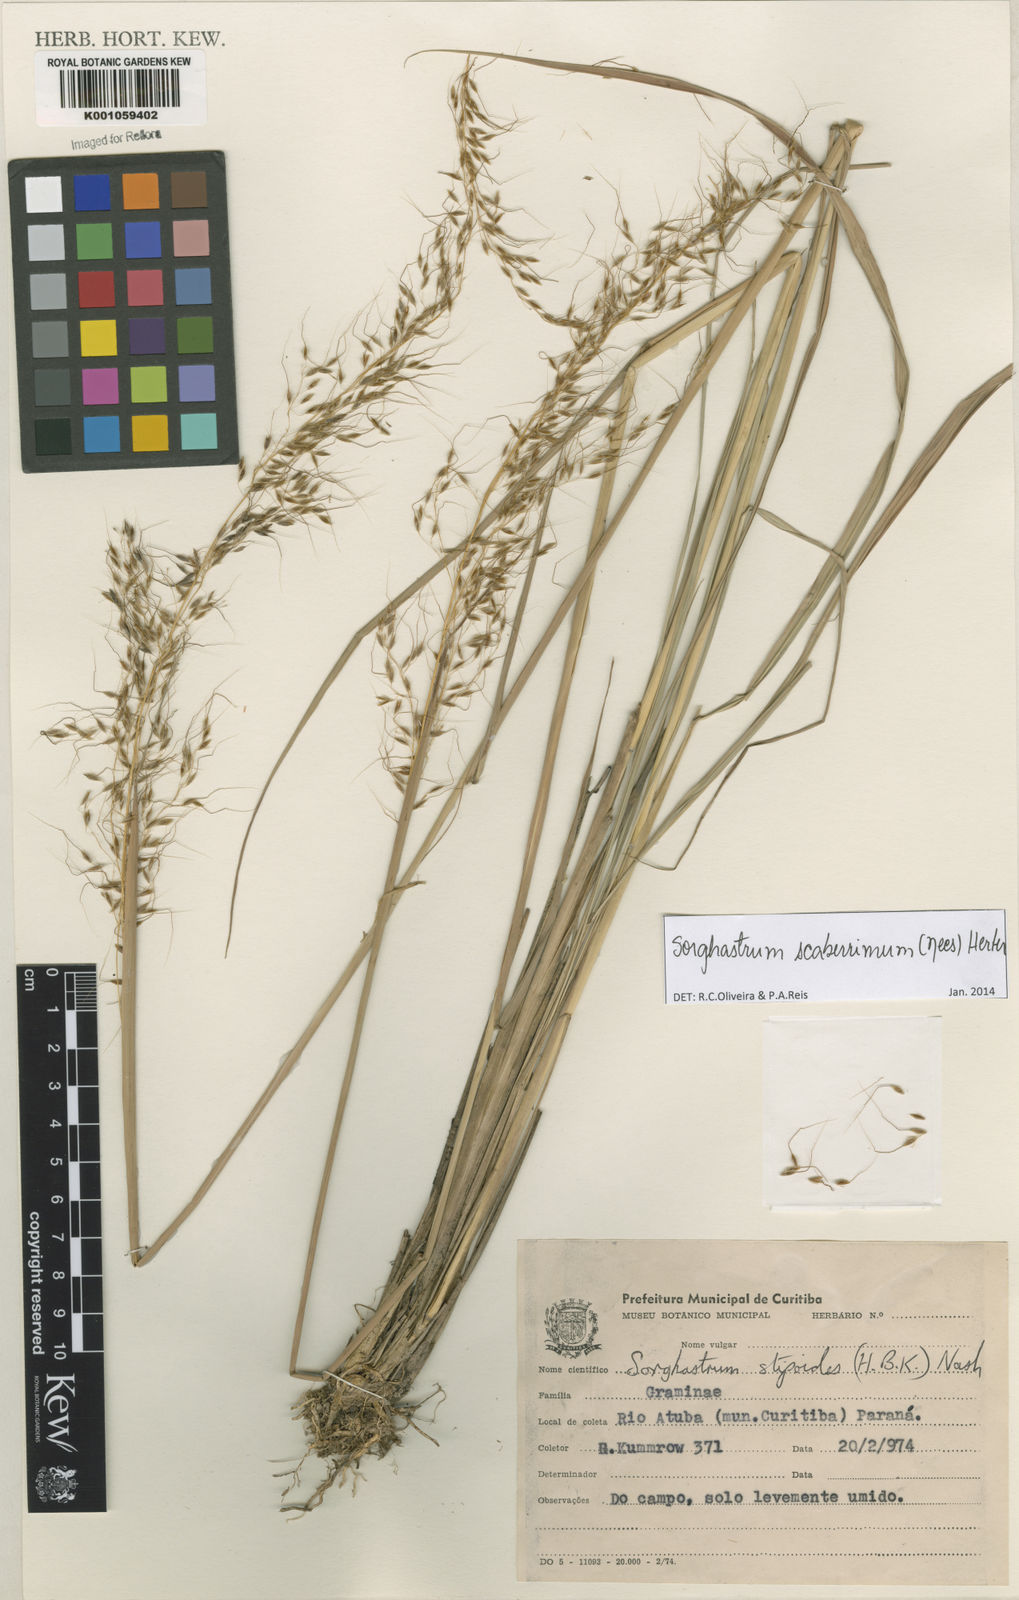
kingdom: Plantae
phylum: Tracheophyta
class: Liliopsida
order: Poales
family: Poaceae
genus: Sorghastrum
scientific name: Sorghastrum scaberrimum
